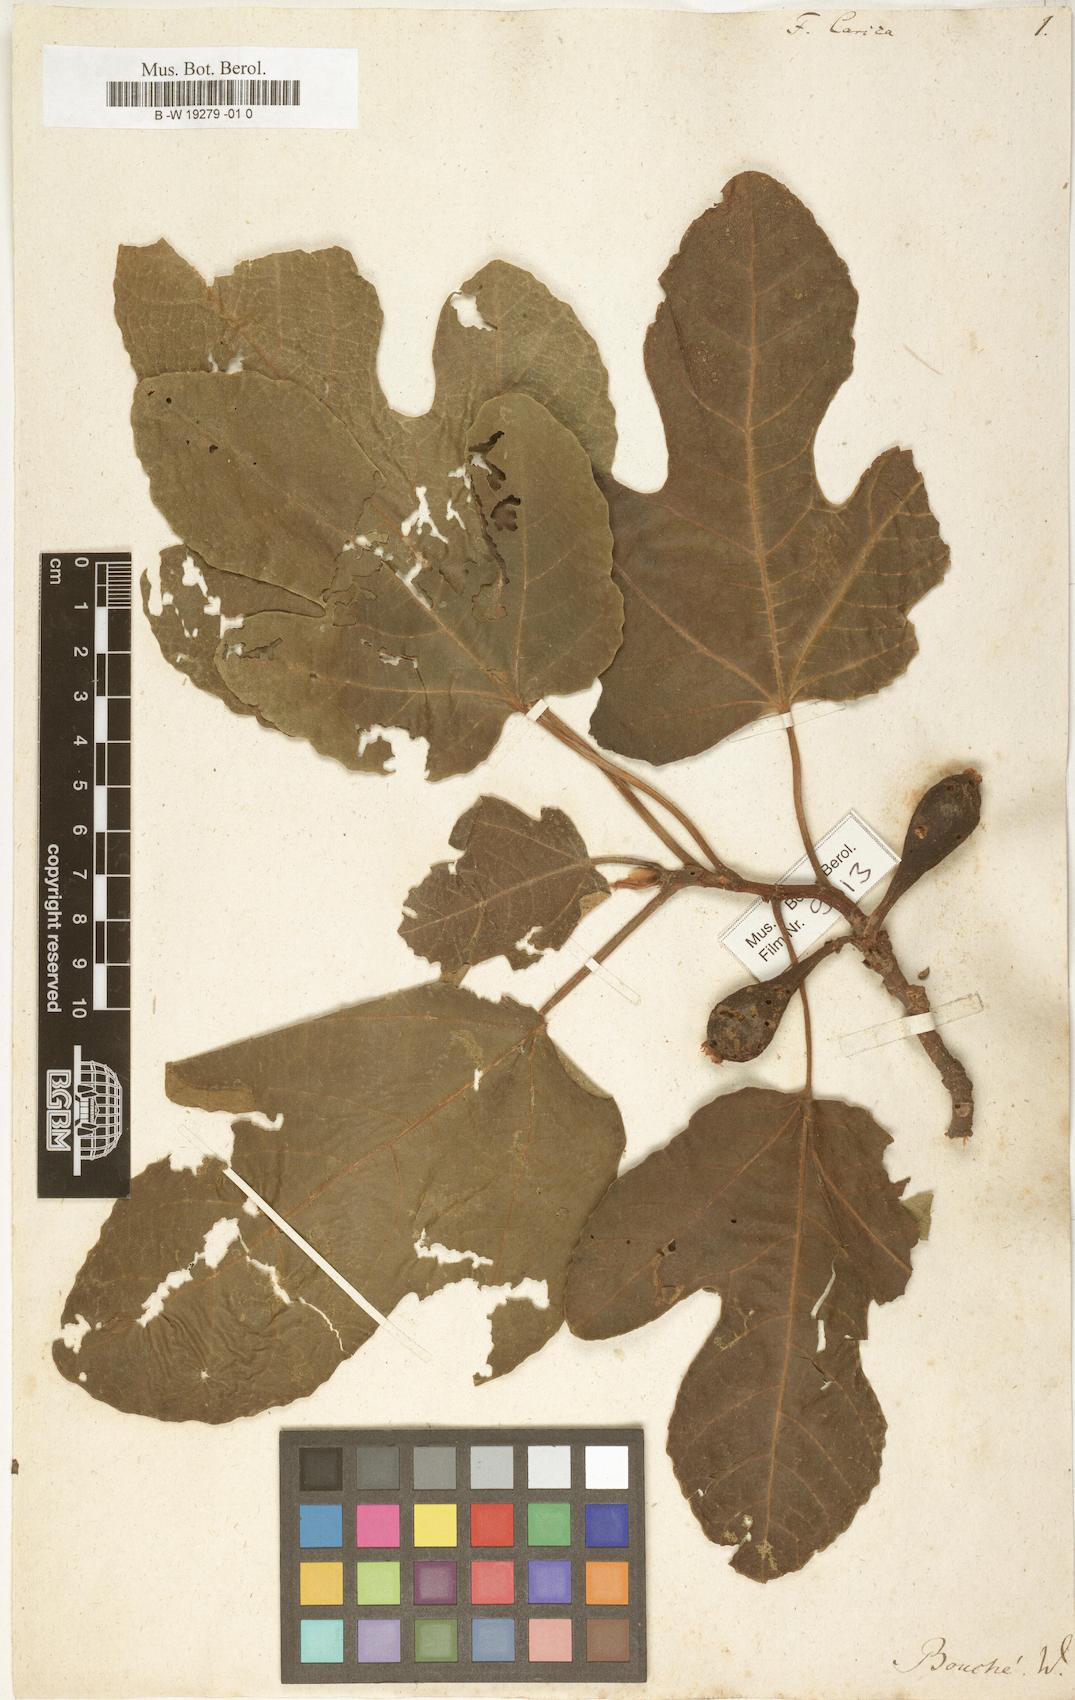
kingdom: Plantae
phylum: Tracheophyta
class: Magnoliopsida
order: Rosales
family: Moraceae
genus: Ficus
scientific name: Ficus carica
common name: Fig
